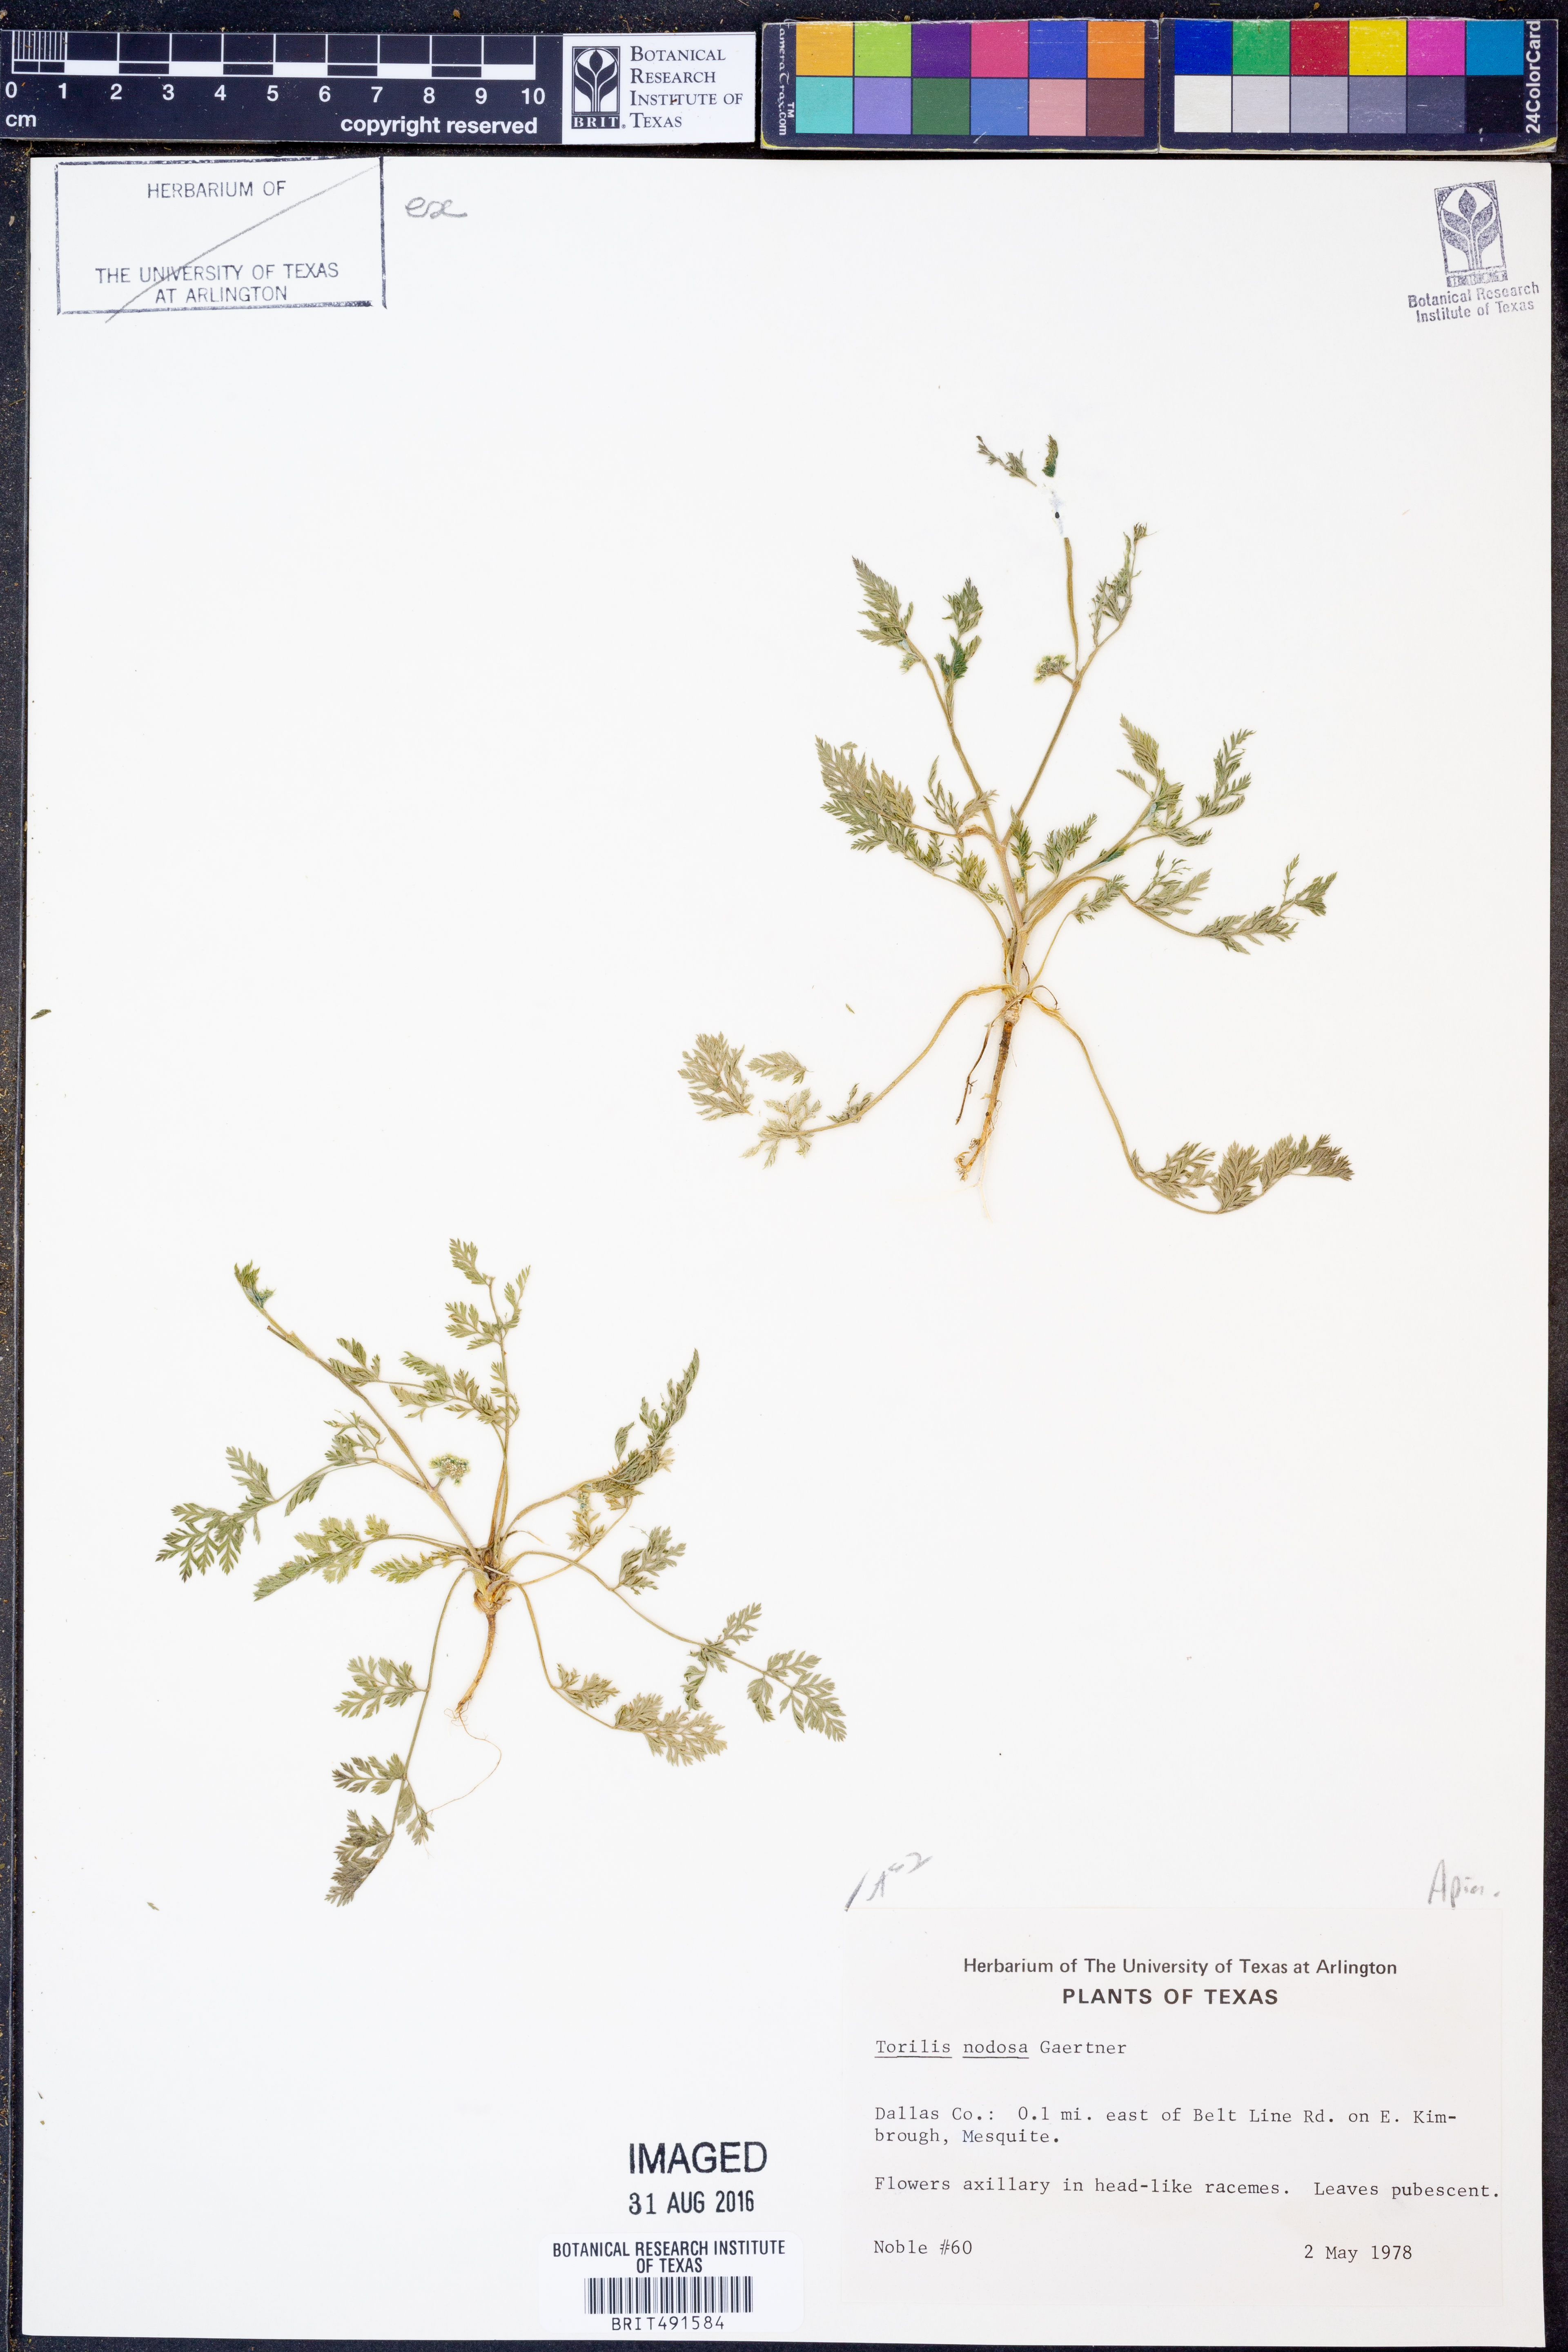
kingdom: Plantae
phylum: Tracheophyta
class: Magnoliopsida
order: Apiales
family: Apiaceae
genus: Torilis
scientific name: Torilis nodosa
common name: Knotted hedge-parsley
